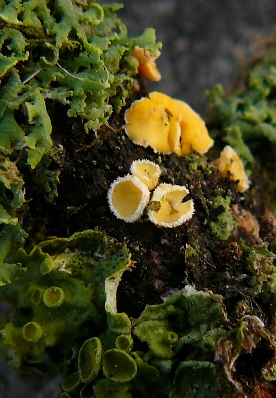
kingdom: Fungi
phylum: Ascomycota
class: Leotiomycetes
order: Helotiales
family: Lachnaceae
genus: Lachnellula
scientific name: Lachnellula calyciformis
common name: ædelgran-frynseskive
